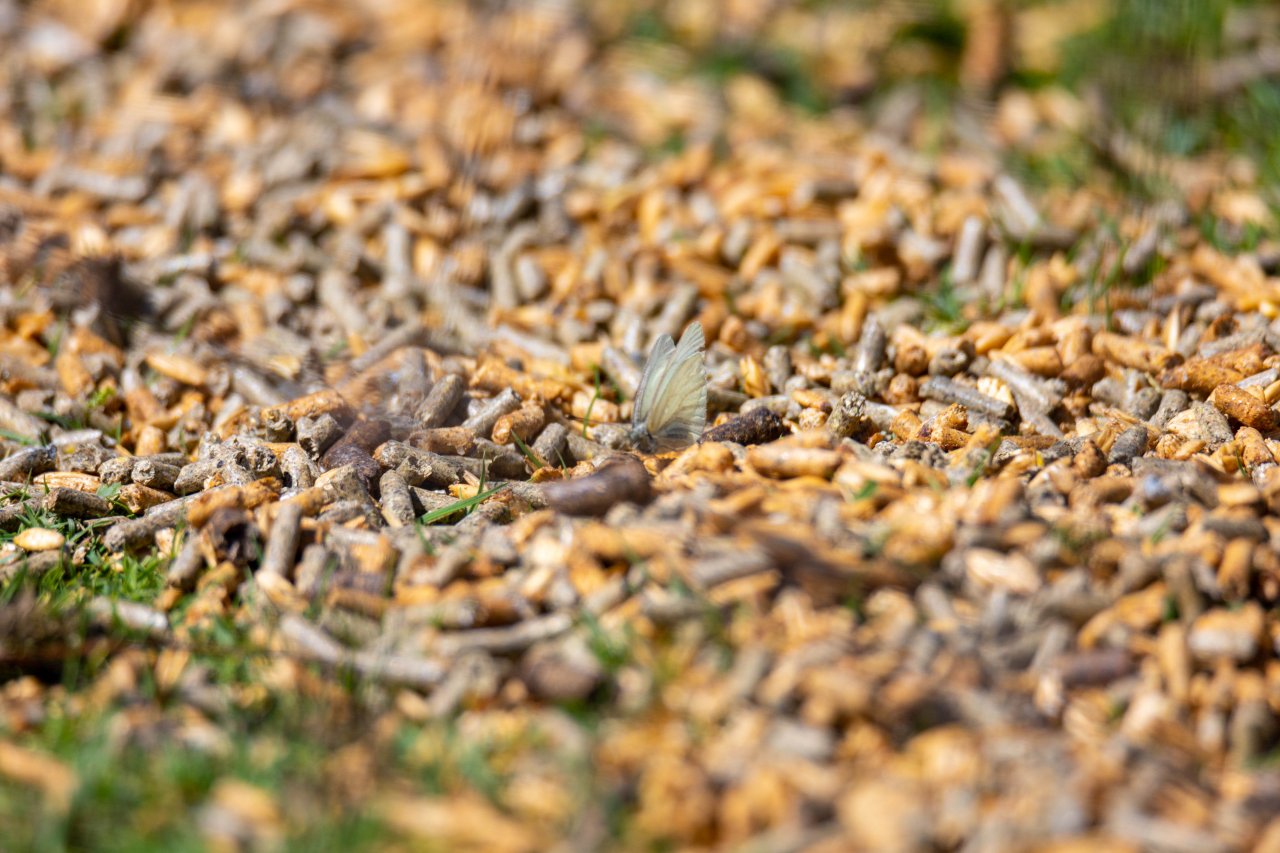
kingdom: Animalia
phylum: Arthropoda
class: Insecta
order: Lepidoptera
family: Pieridae
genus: Pieris
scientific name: Pieris marginalis
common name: Margined White
